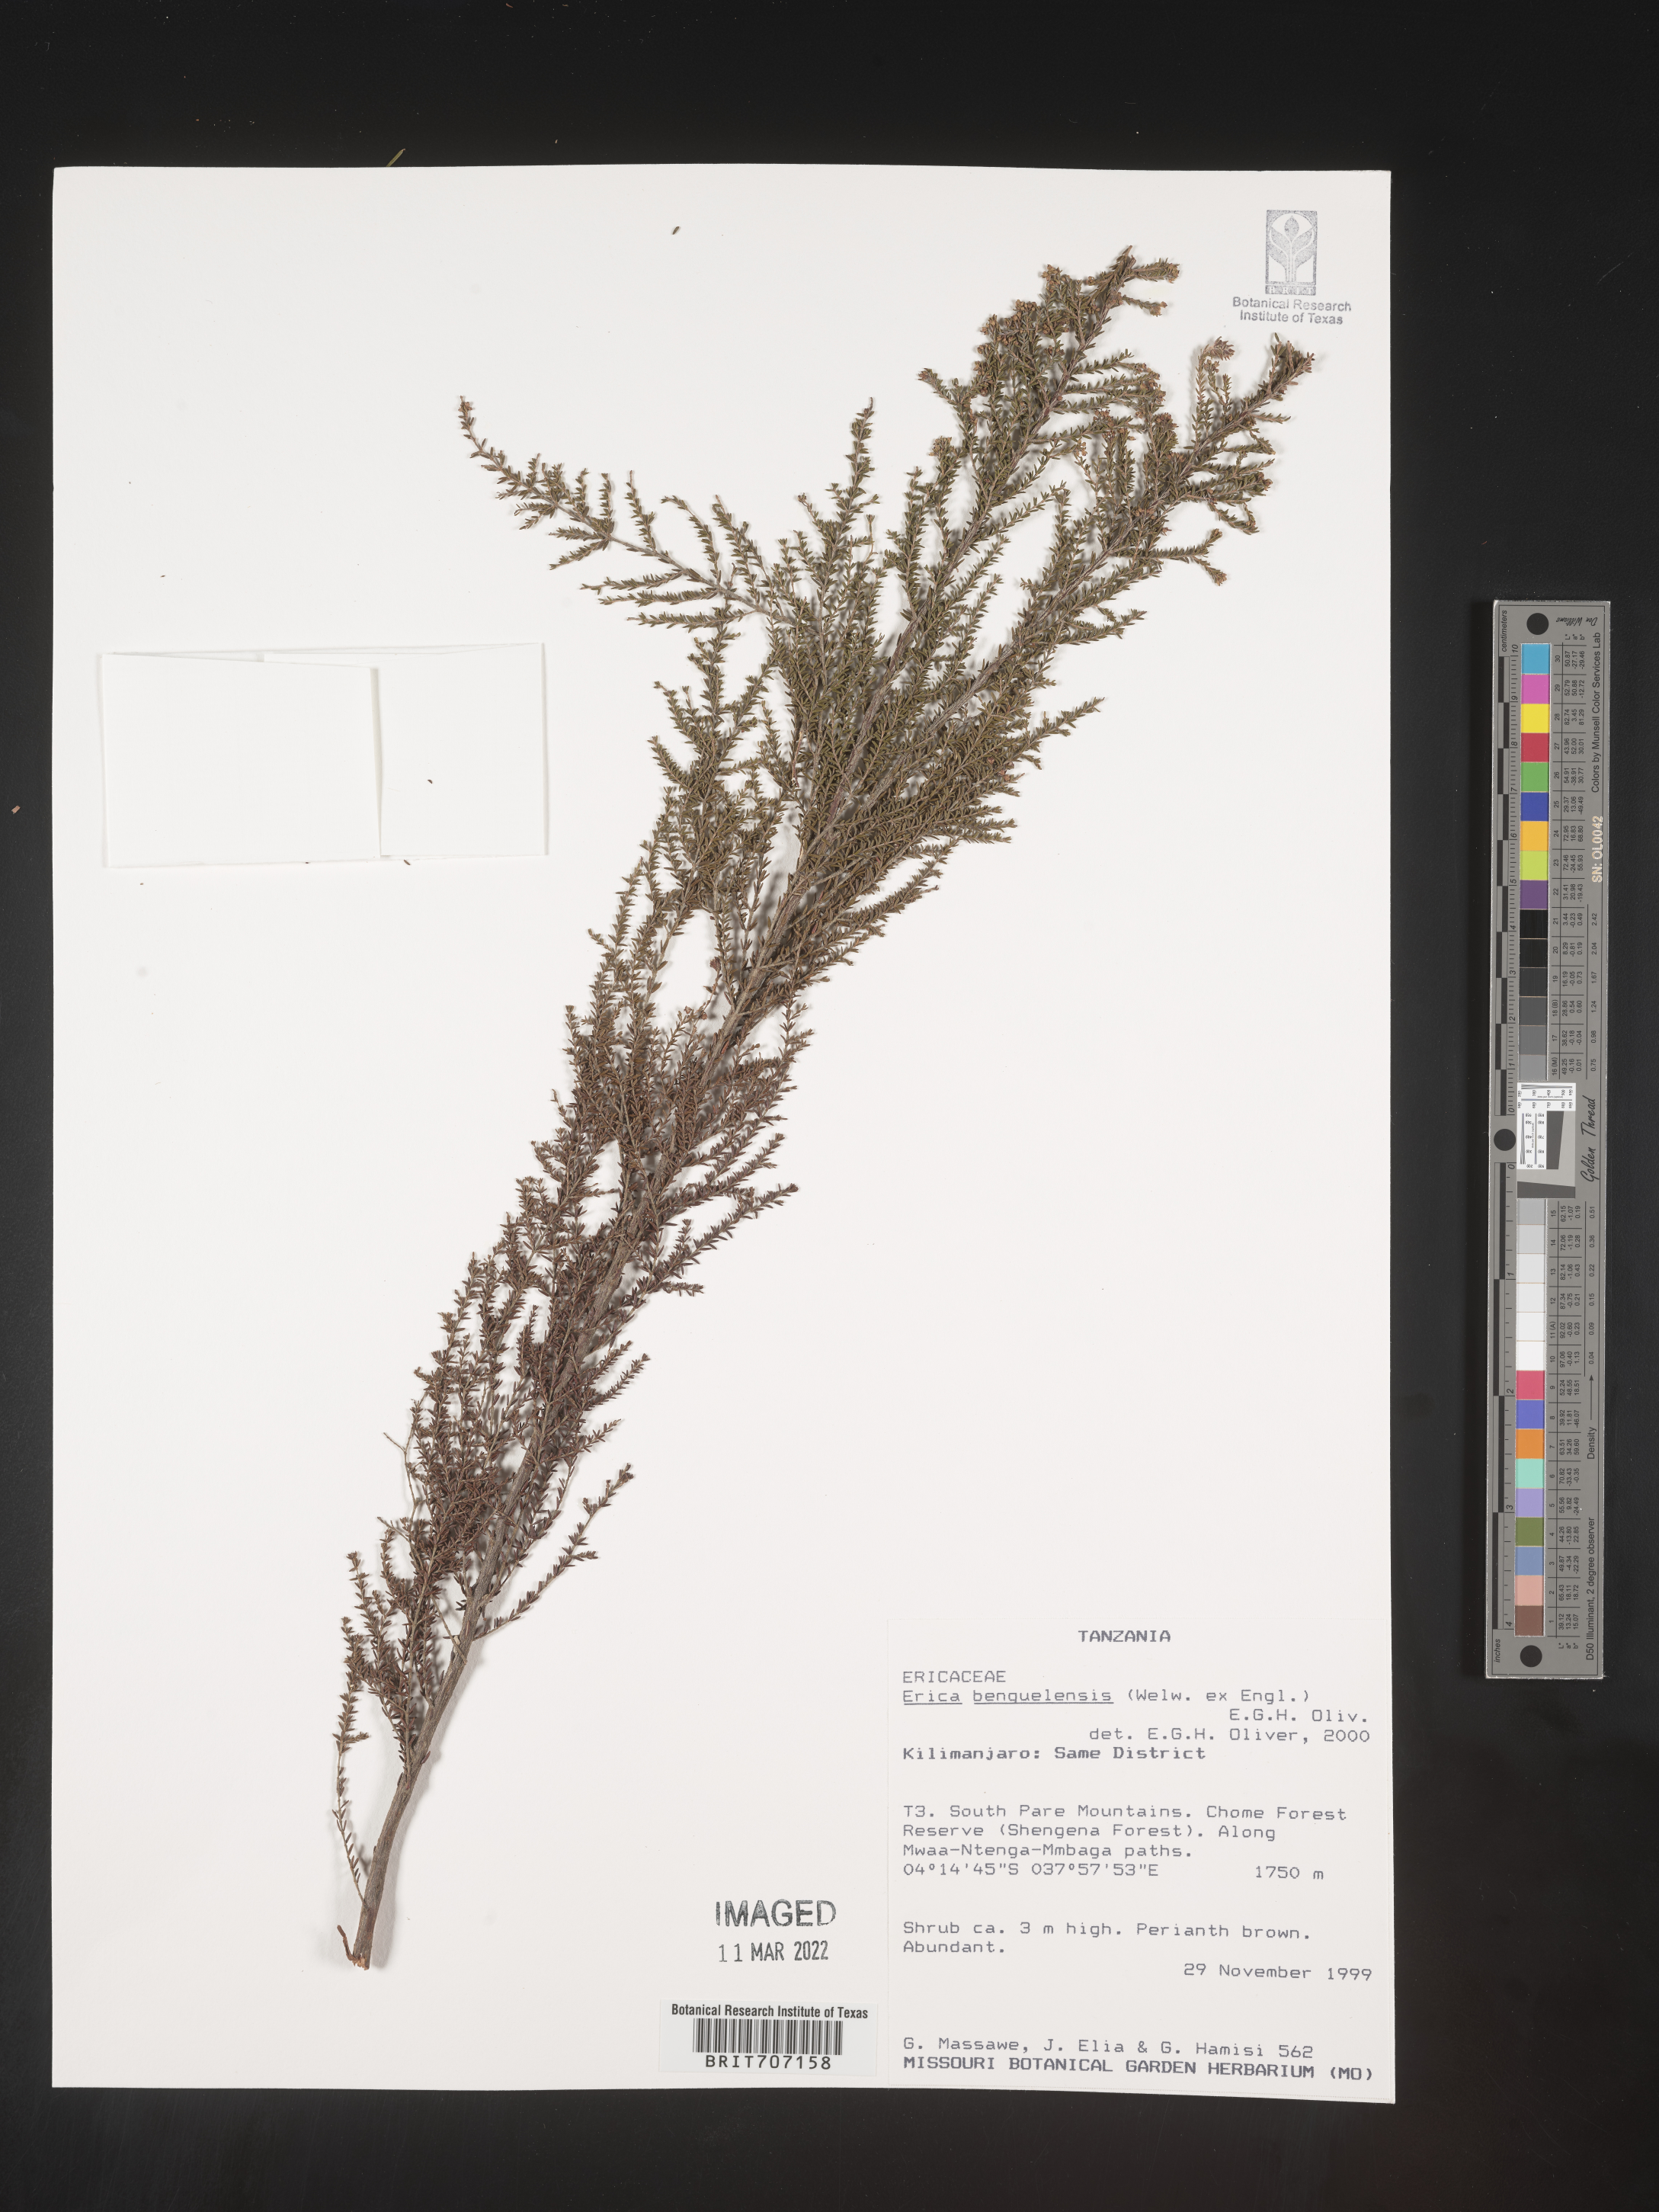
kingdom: Plantae
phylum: Tracheophyta
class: Magnoliopsida
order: Ericales
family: Ericaceae
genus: Erica
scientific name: Erica
